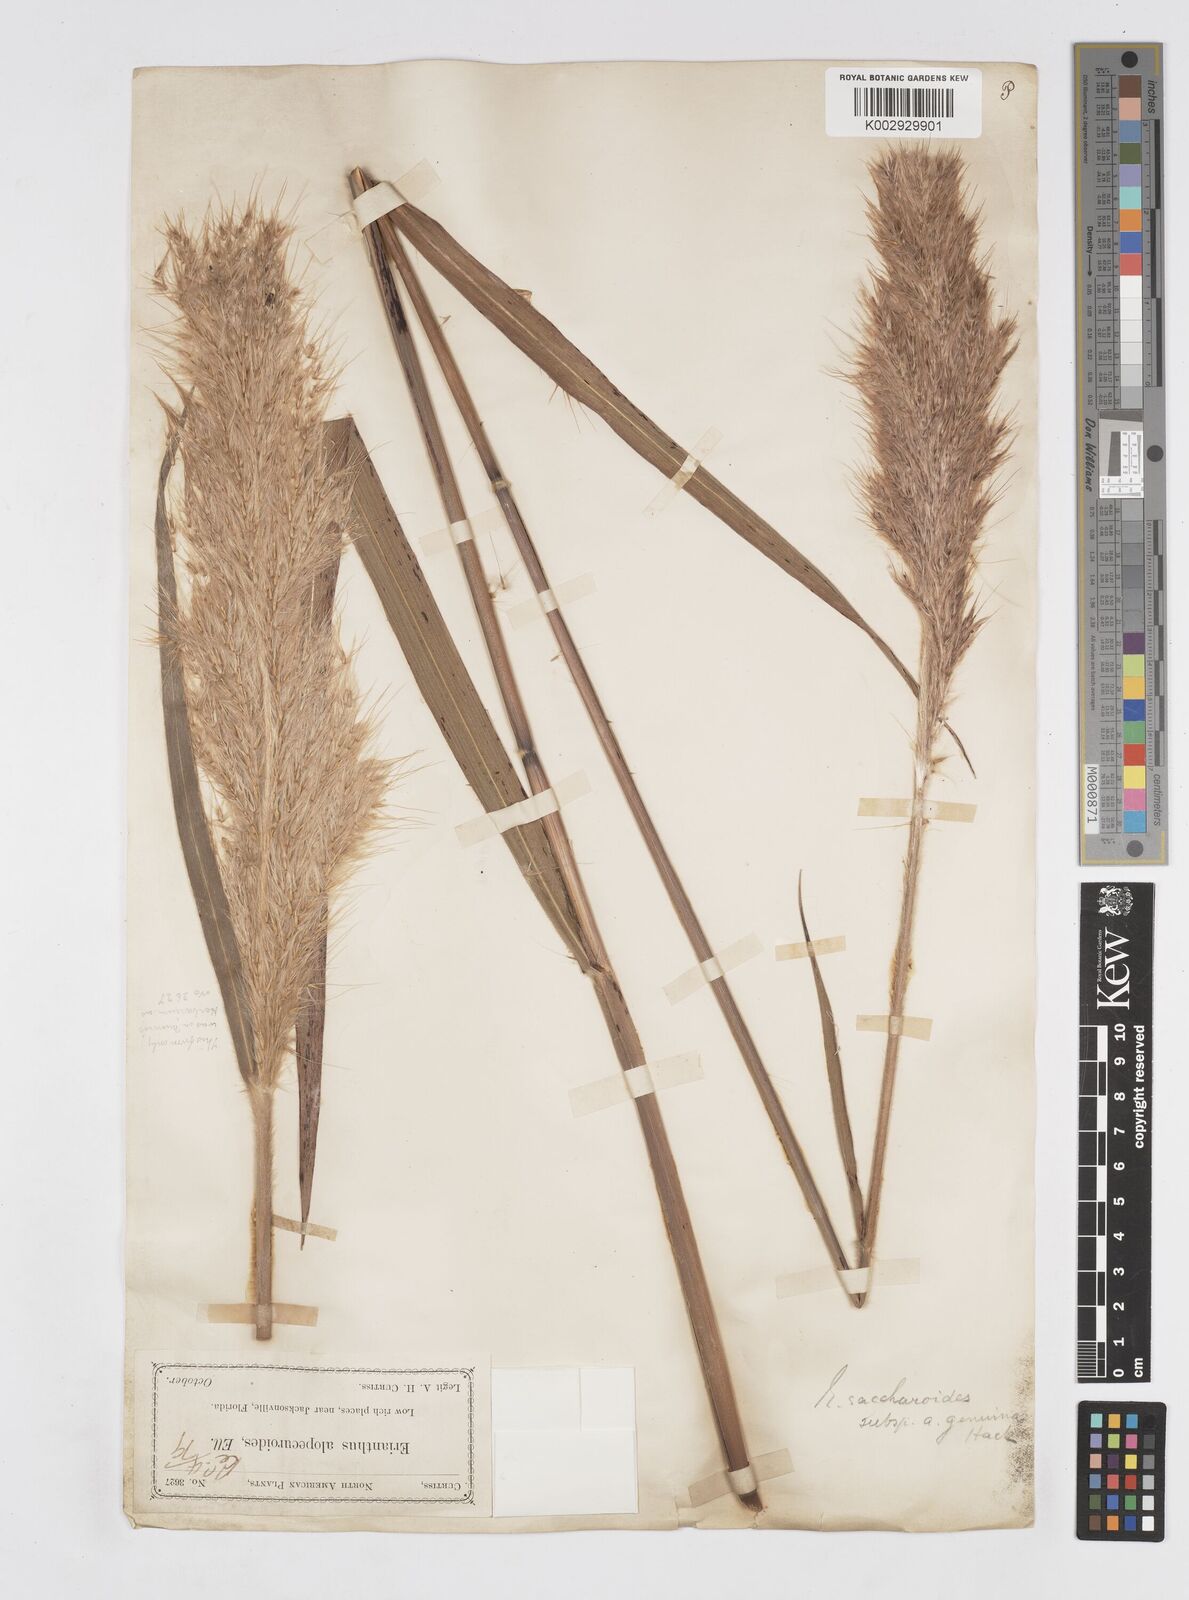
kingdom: Plantae
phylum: Tracheophyta
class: Liliopsida
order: Poales
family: Poaceae
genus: Saccharum
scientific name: Saccharum
